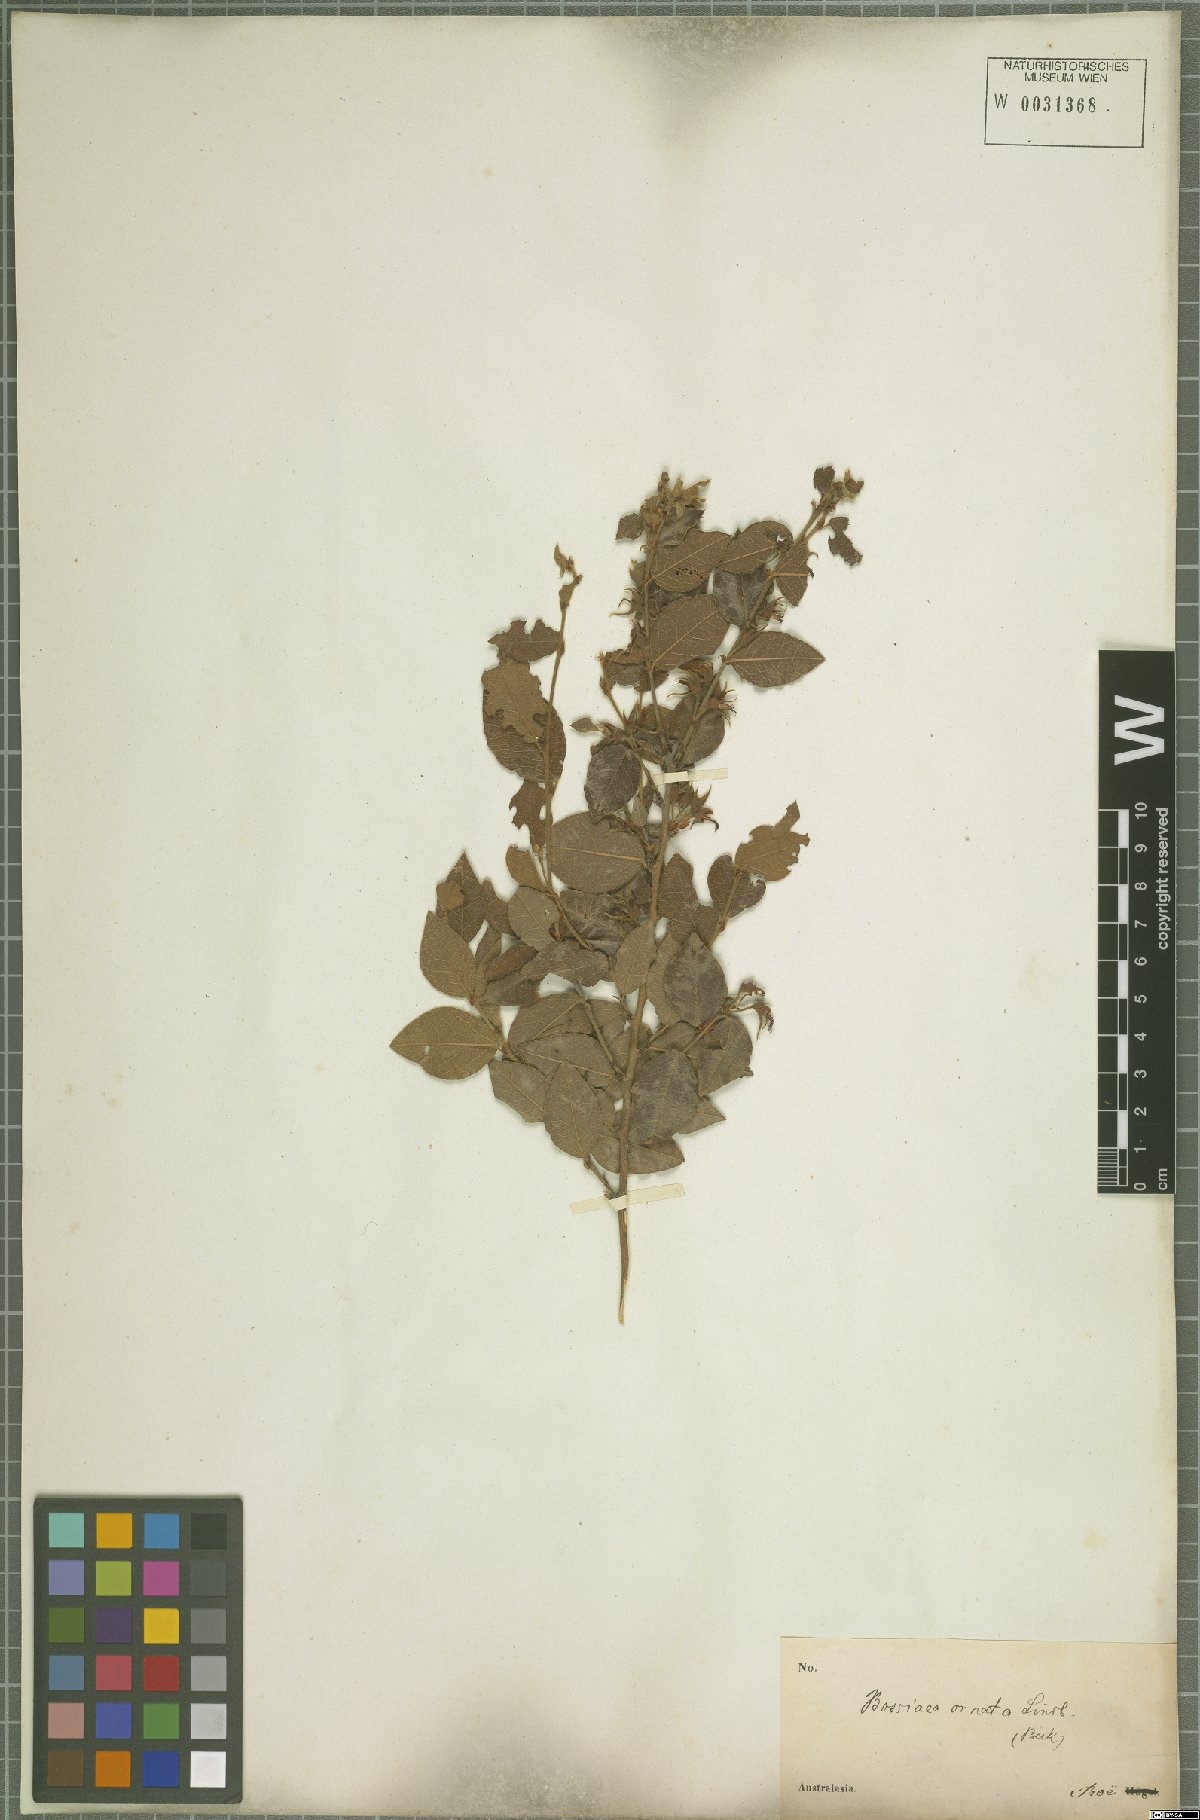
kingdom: Plantae
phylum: Tracheophyta
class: Magnoliopsida
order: Fabales
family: Fabaceae
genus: Bossiaea
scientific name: Bossiaea ornata
